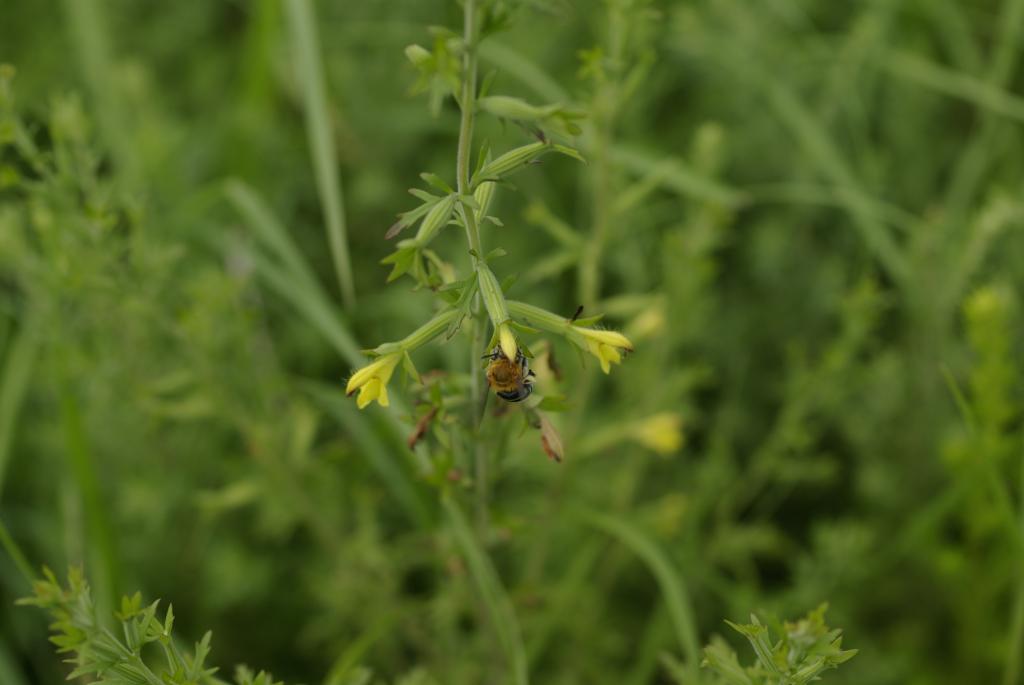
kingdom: Plantae
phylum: Tracheophyta
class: Magnoliopsida
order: Lamiales
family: Orobanchaceae
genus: Siphonostegia
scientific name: Siphonostegia chinensis
